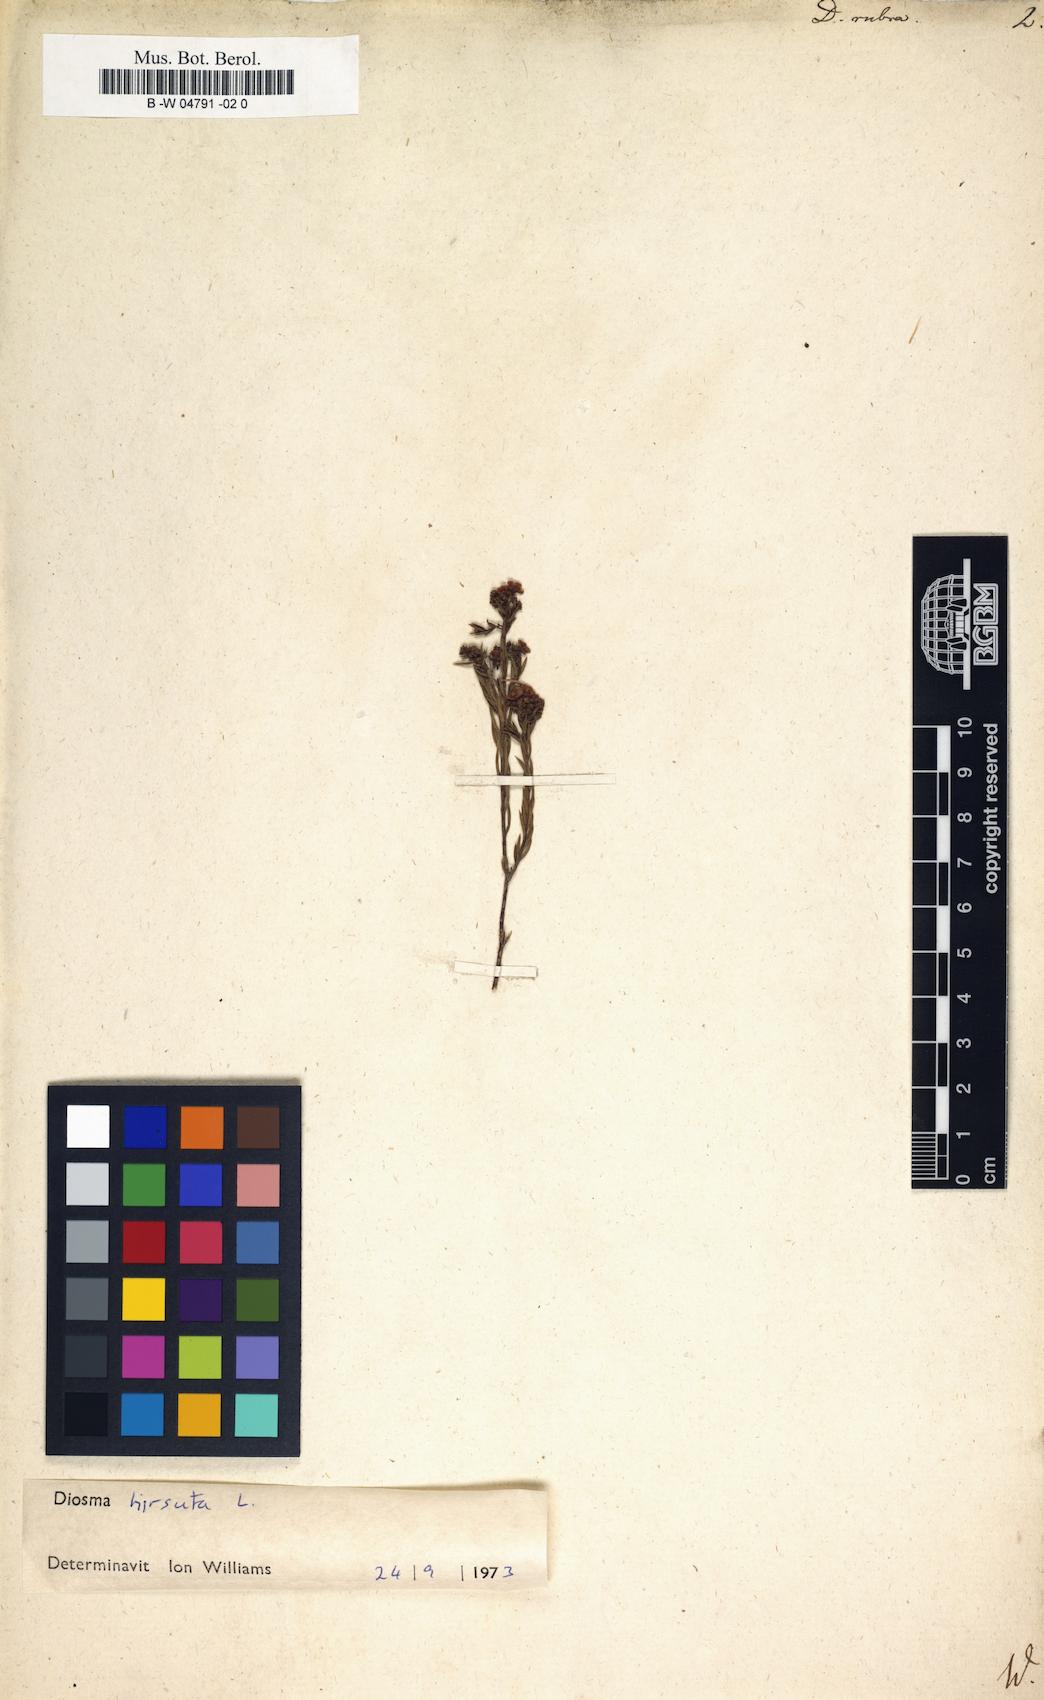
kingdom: Plantae
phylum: Tracheophyta
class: Magnoliopsida
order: Sapindales
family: Rutaceae
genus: Diosma
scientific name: Diosma hirsuta
